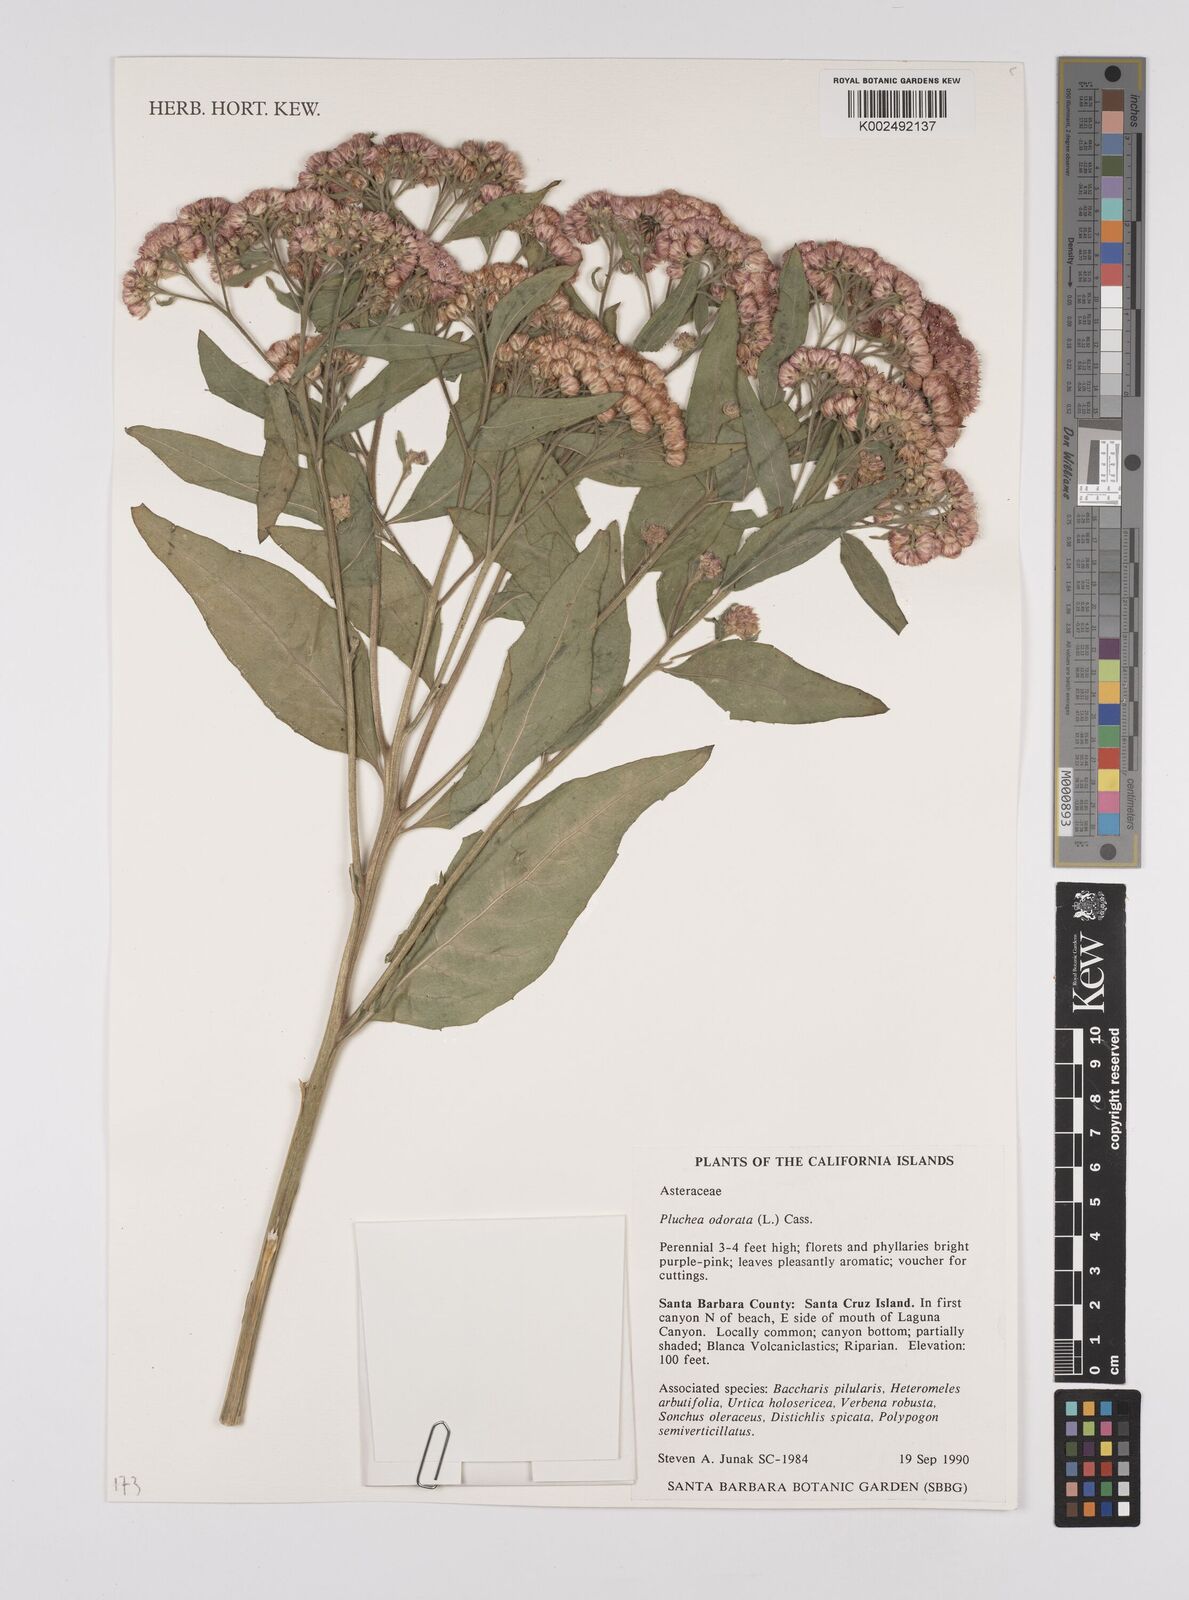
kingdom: Plantae
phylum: Tracheophyta
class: Magnoliopsida
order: Asterales
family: Asteraceae
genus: Pluchea
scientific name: Pluchea odorata
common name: Saltmarsh fleabane
